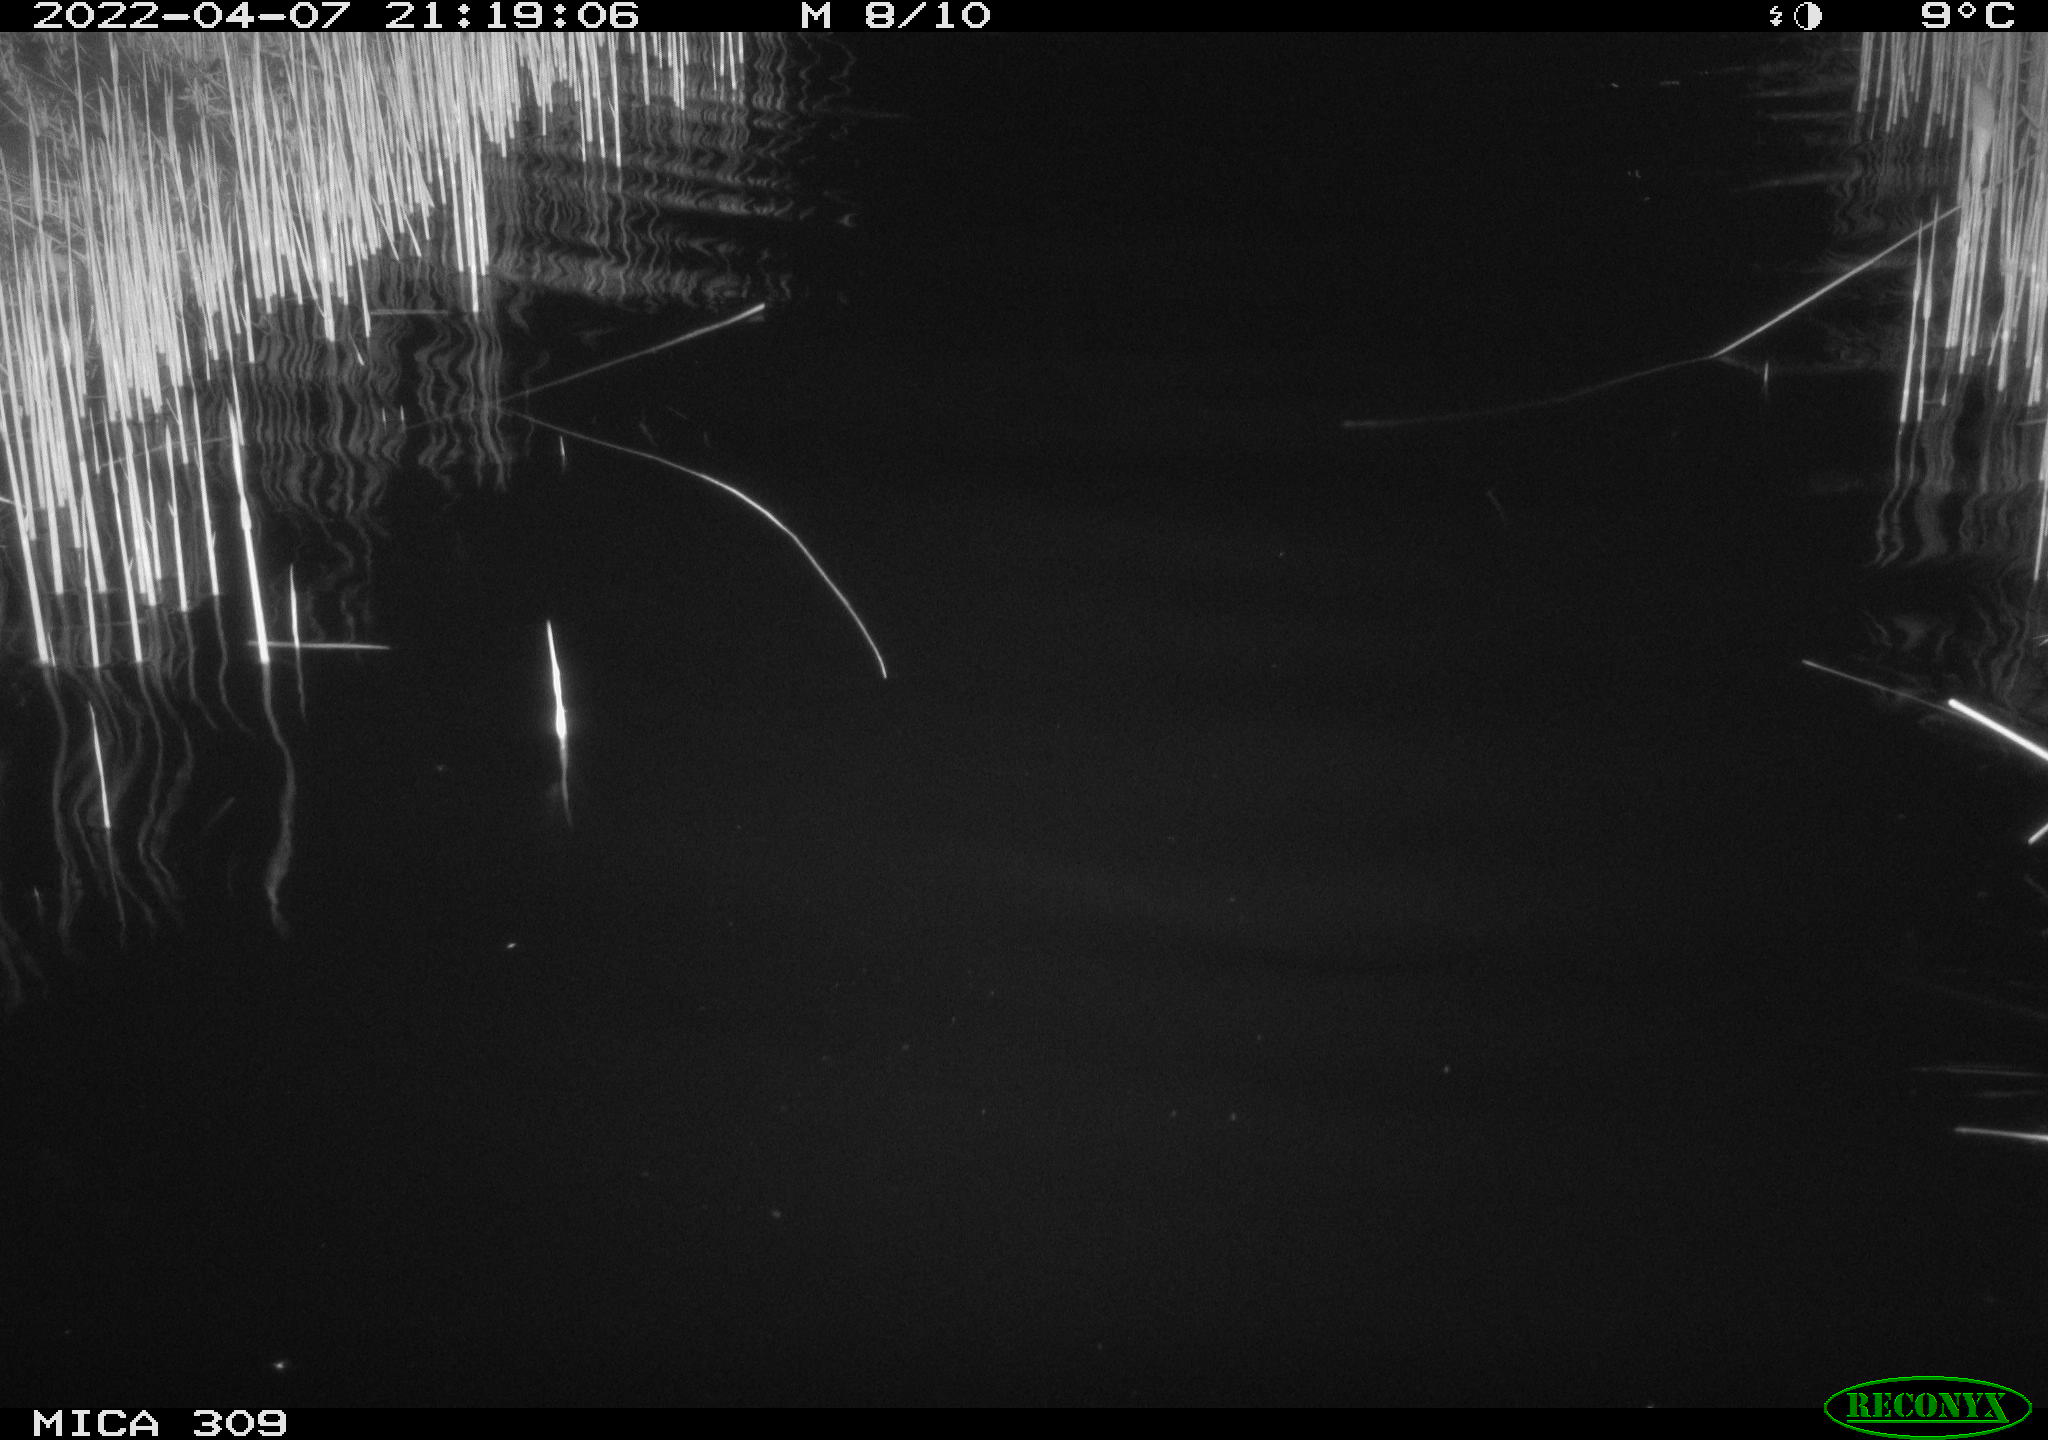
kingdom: Animalia
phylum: Chordata
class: Mammalia
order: Rodentia
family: Muridae
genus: Rattus
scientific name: Rattus norvegicus
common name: Brown rat
